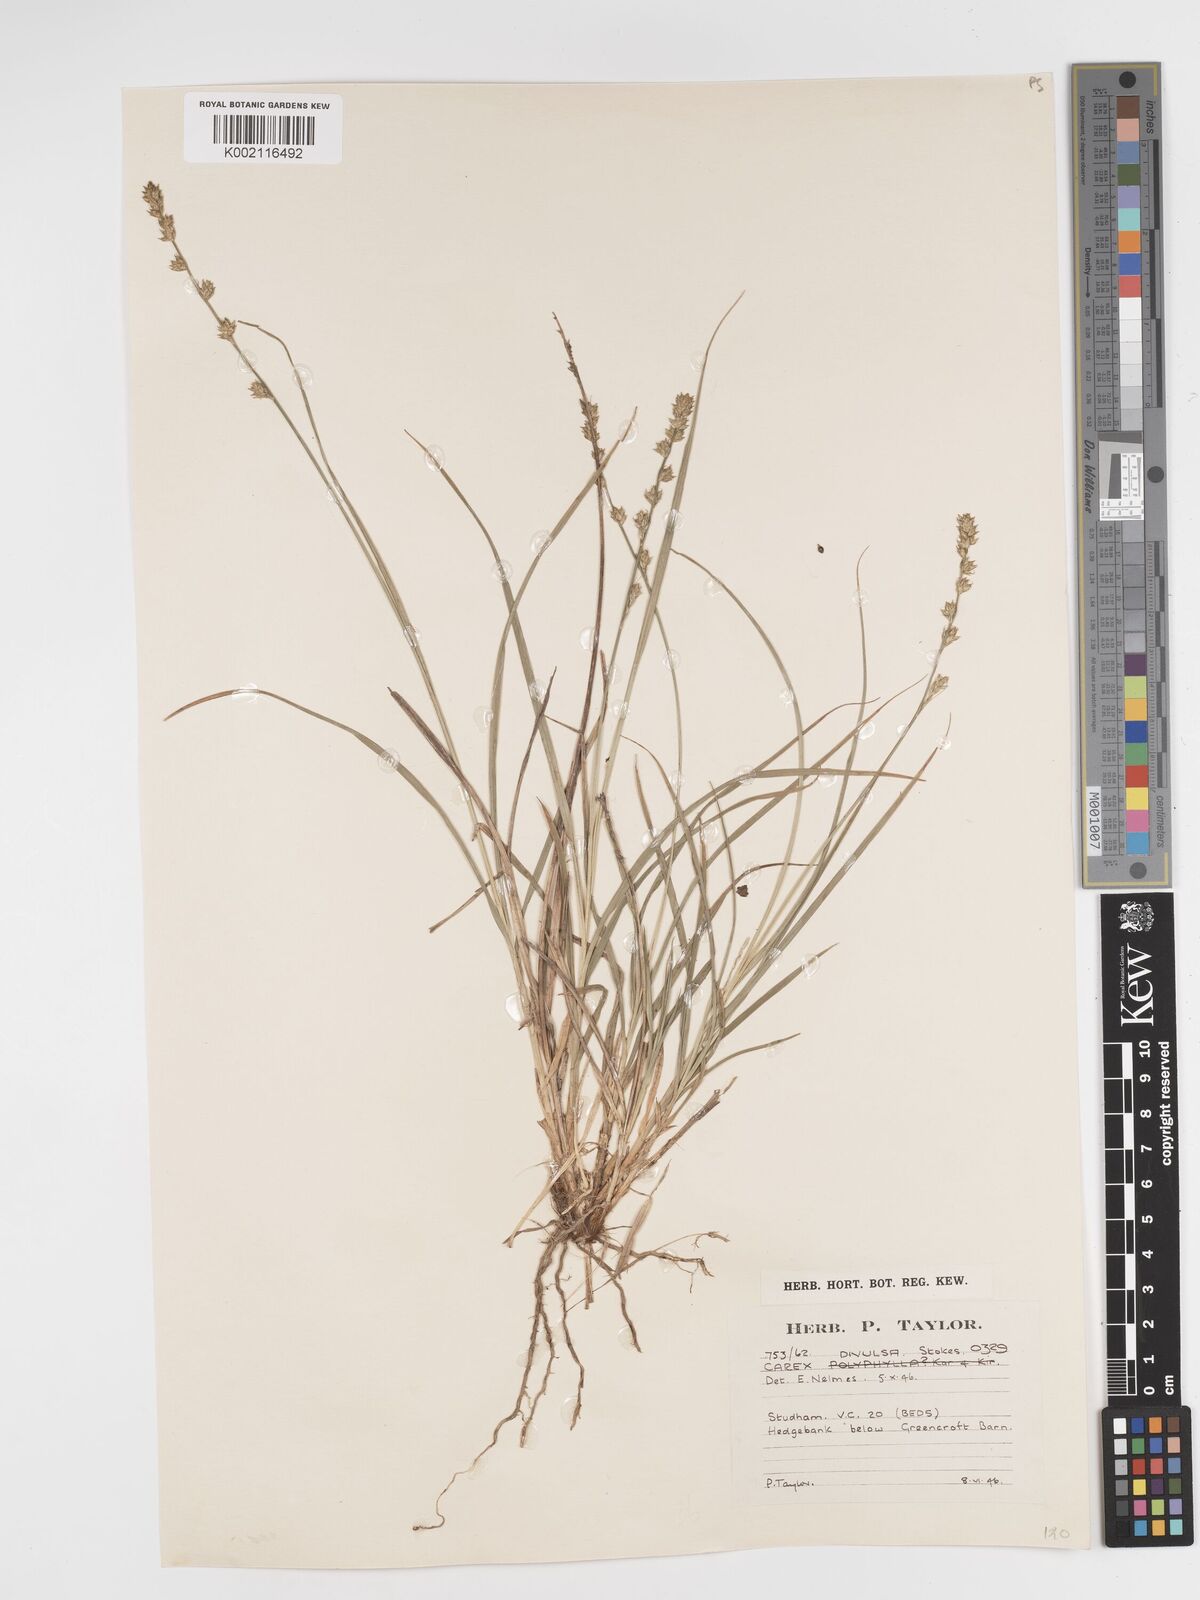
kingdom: Plantae
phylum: Tracheophyta
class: Liliopsida
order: Poales
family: Cyperaceae
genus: Carex
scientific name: Carex divulsa
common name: Grassland sedge
